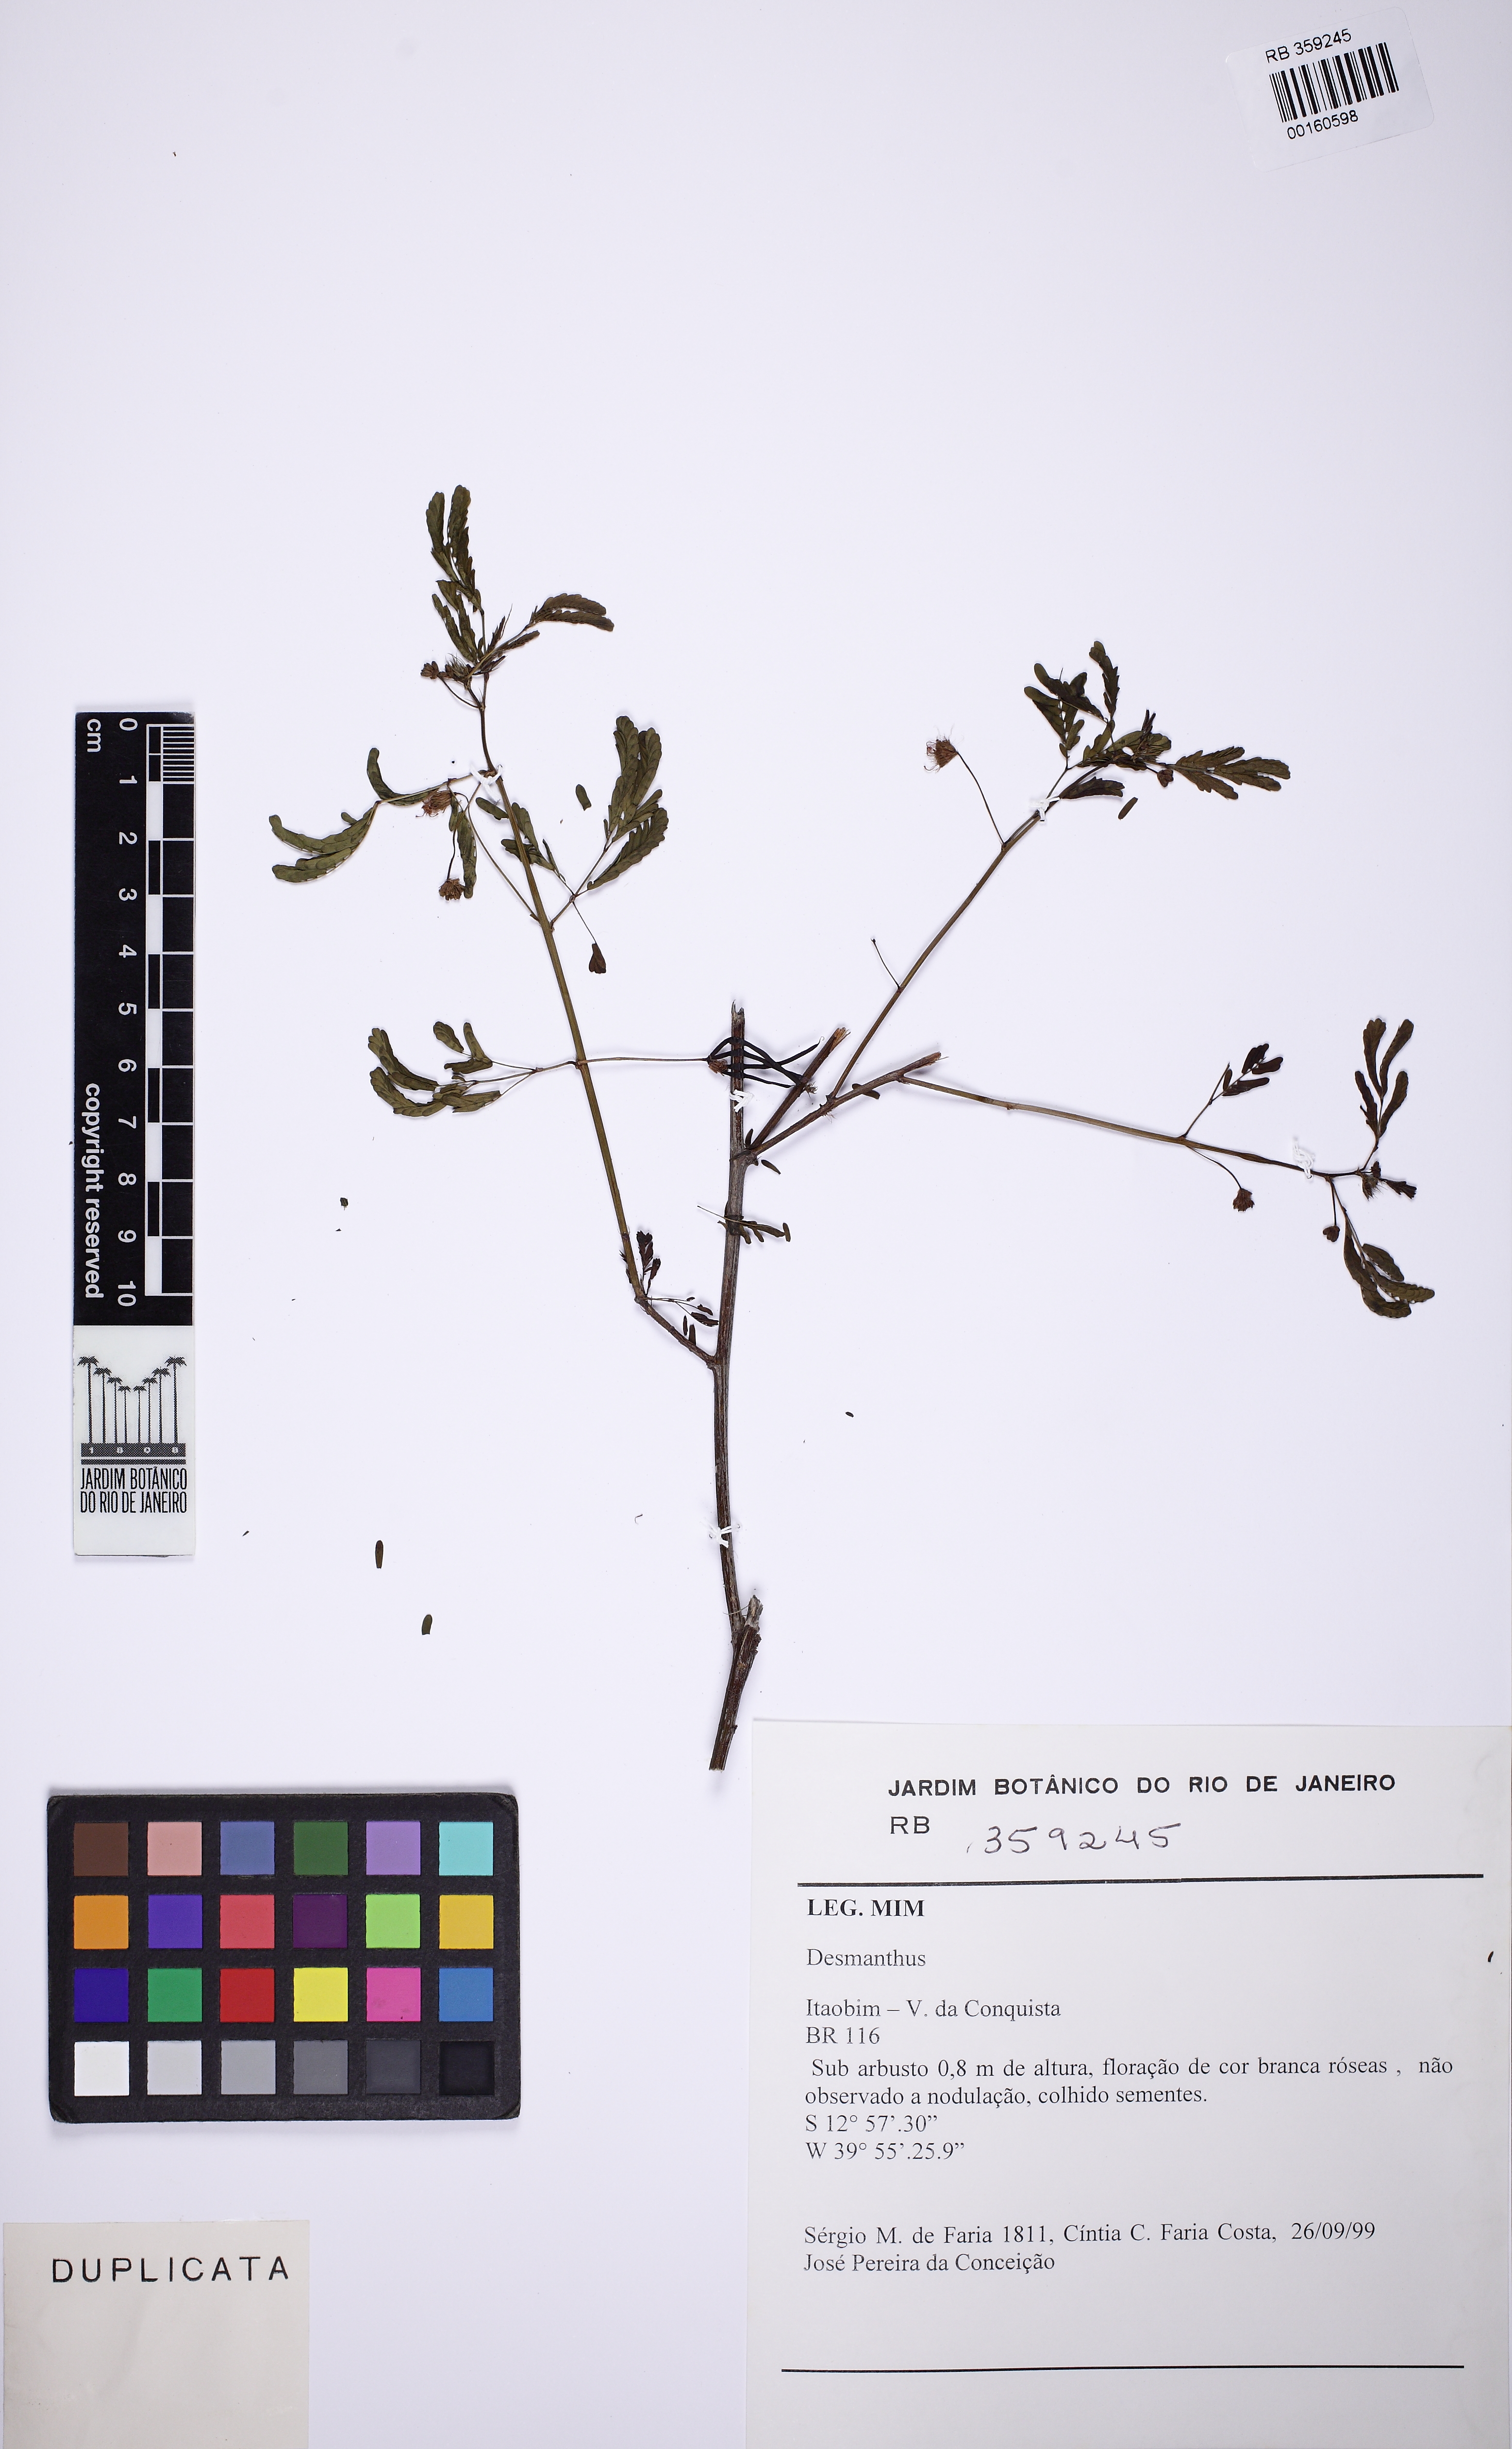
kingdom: Plantae
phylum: Tracheophyta
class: Magnoliopsida
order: Fabales
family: Fabaceae
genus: Desmanthus
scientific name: Desmanthus
